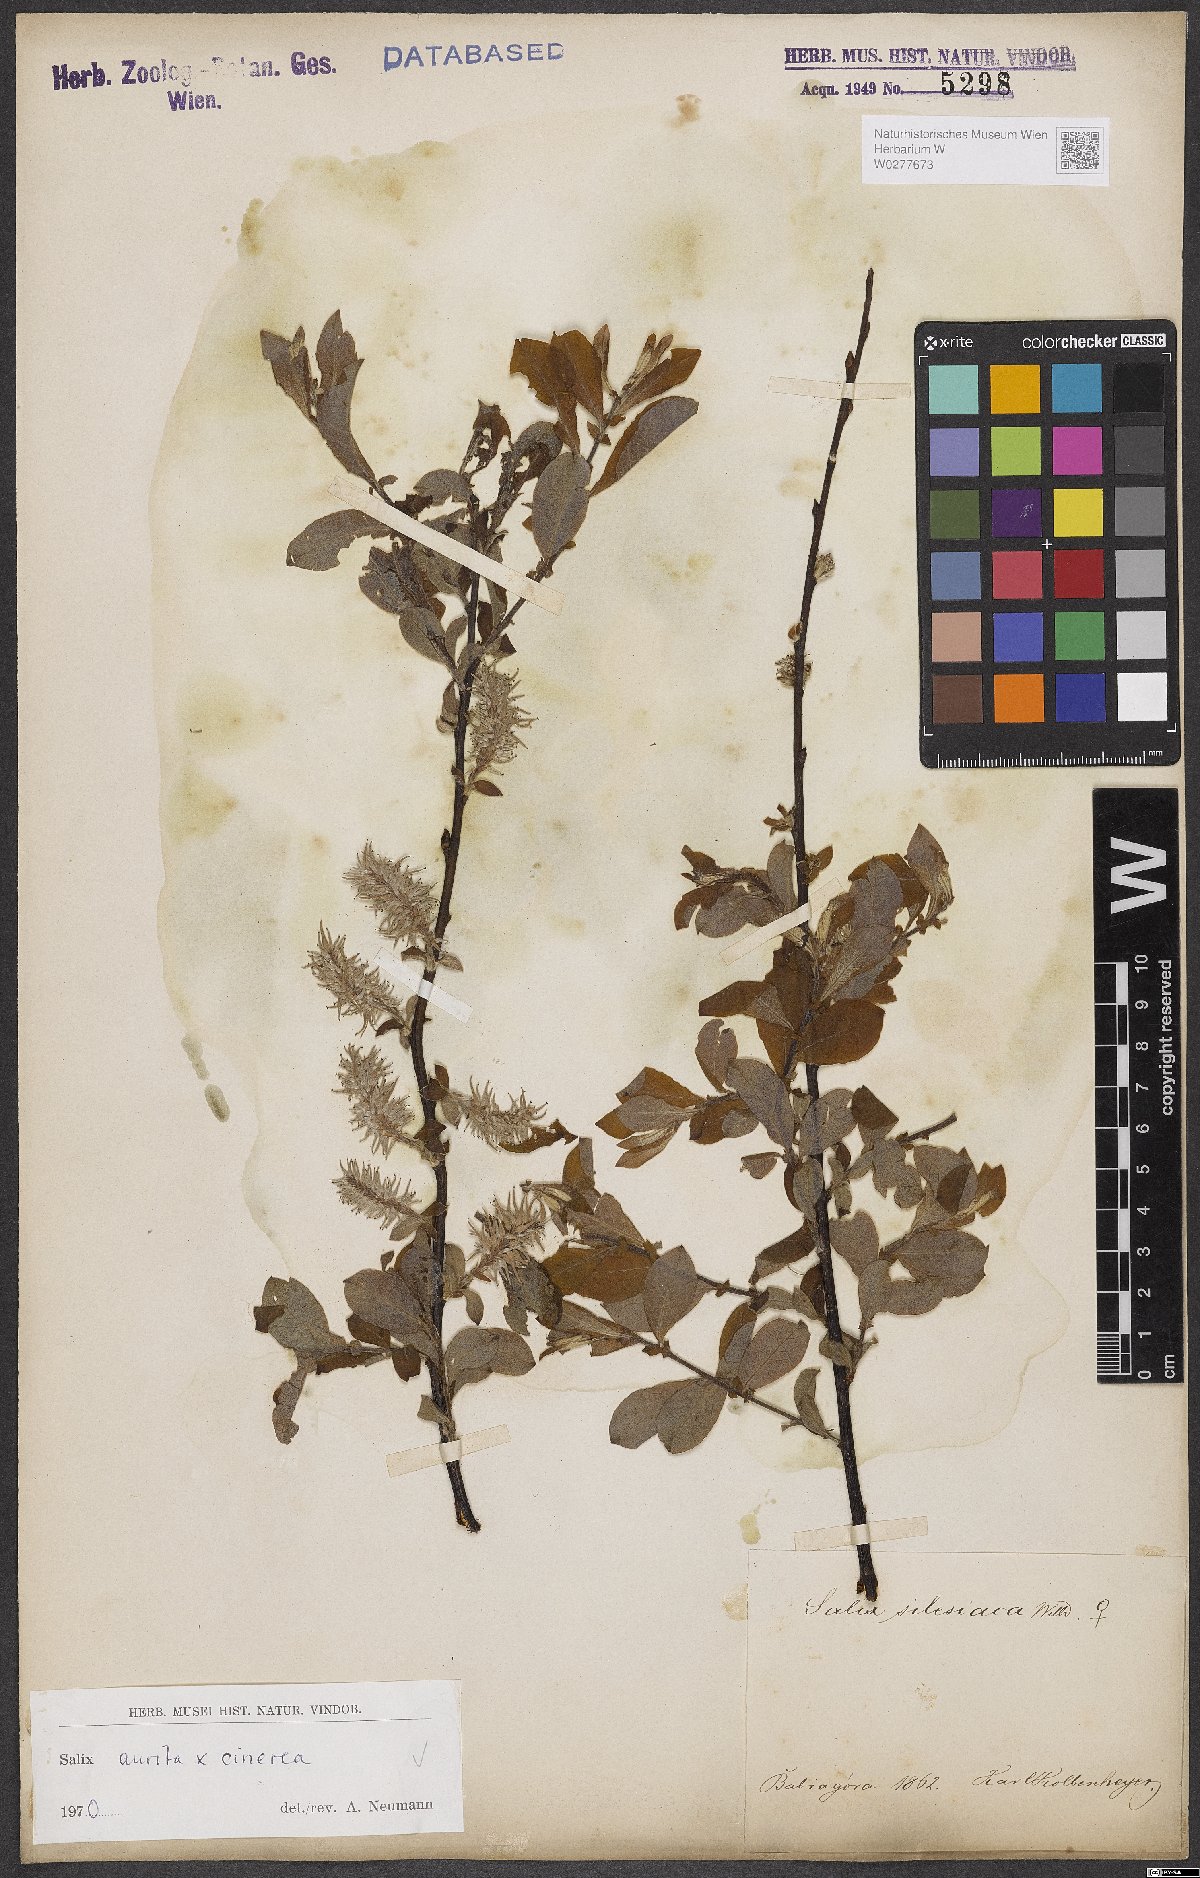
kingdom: Plantae
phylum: Tracheophyta
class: Magnoliopsida
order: Malpighiales
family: Salicaceae
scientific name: Salicaceae
